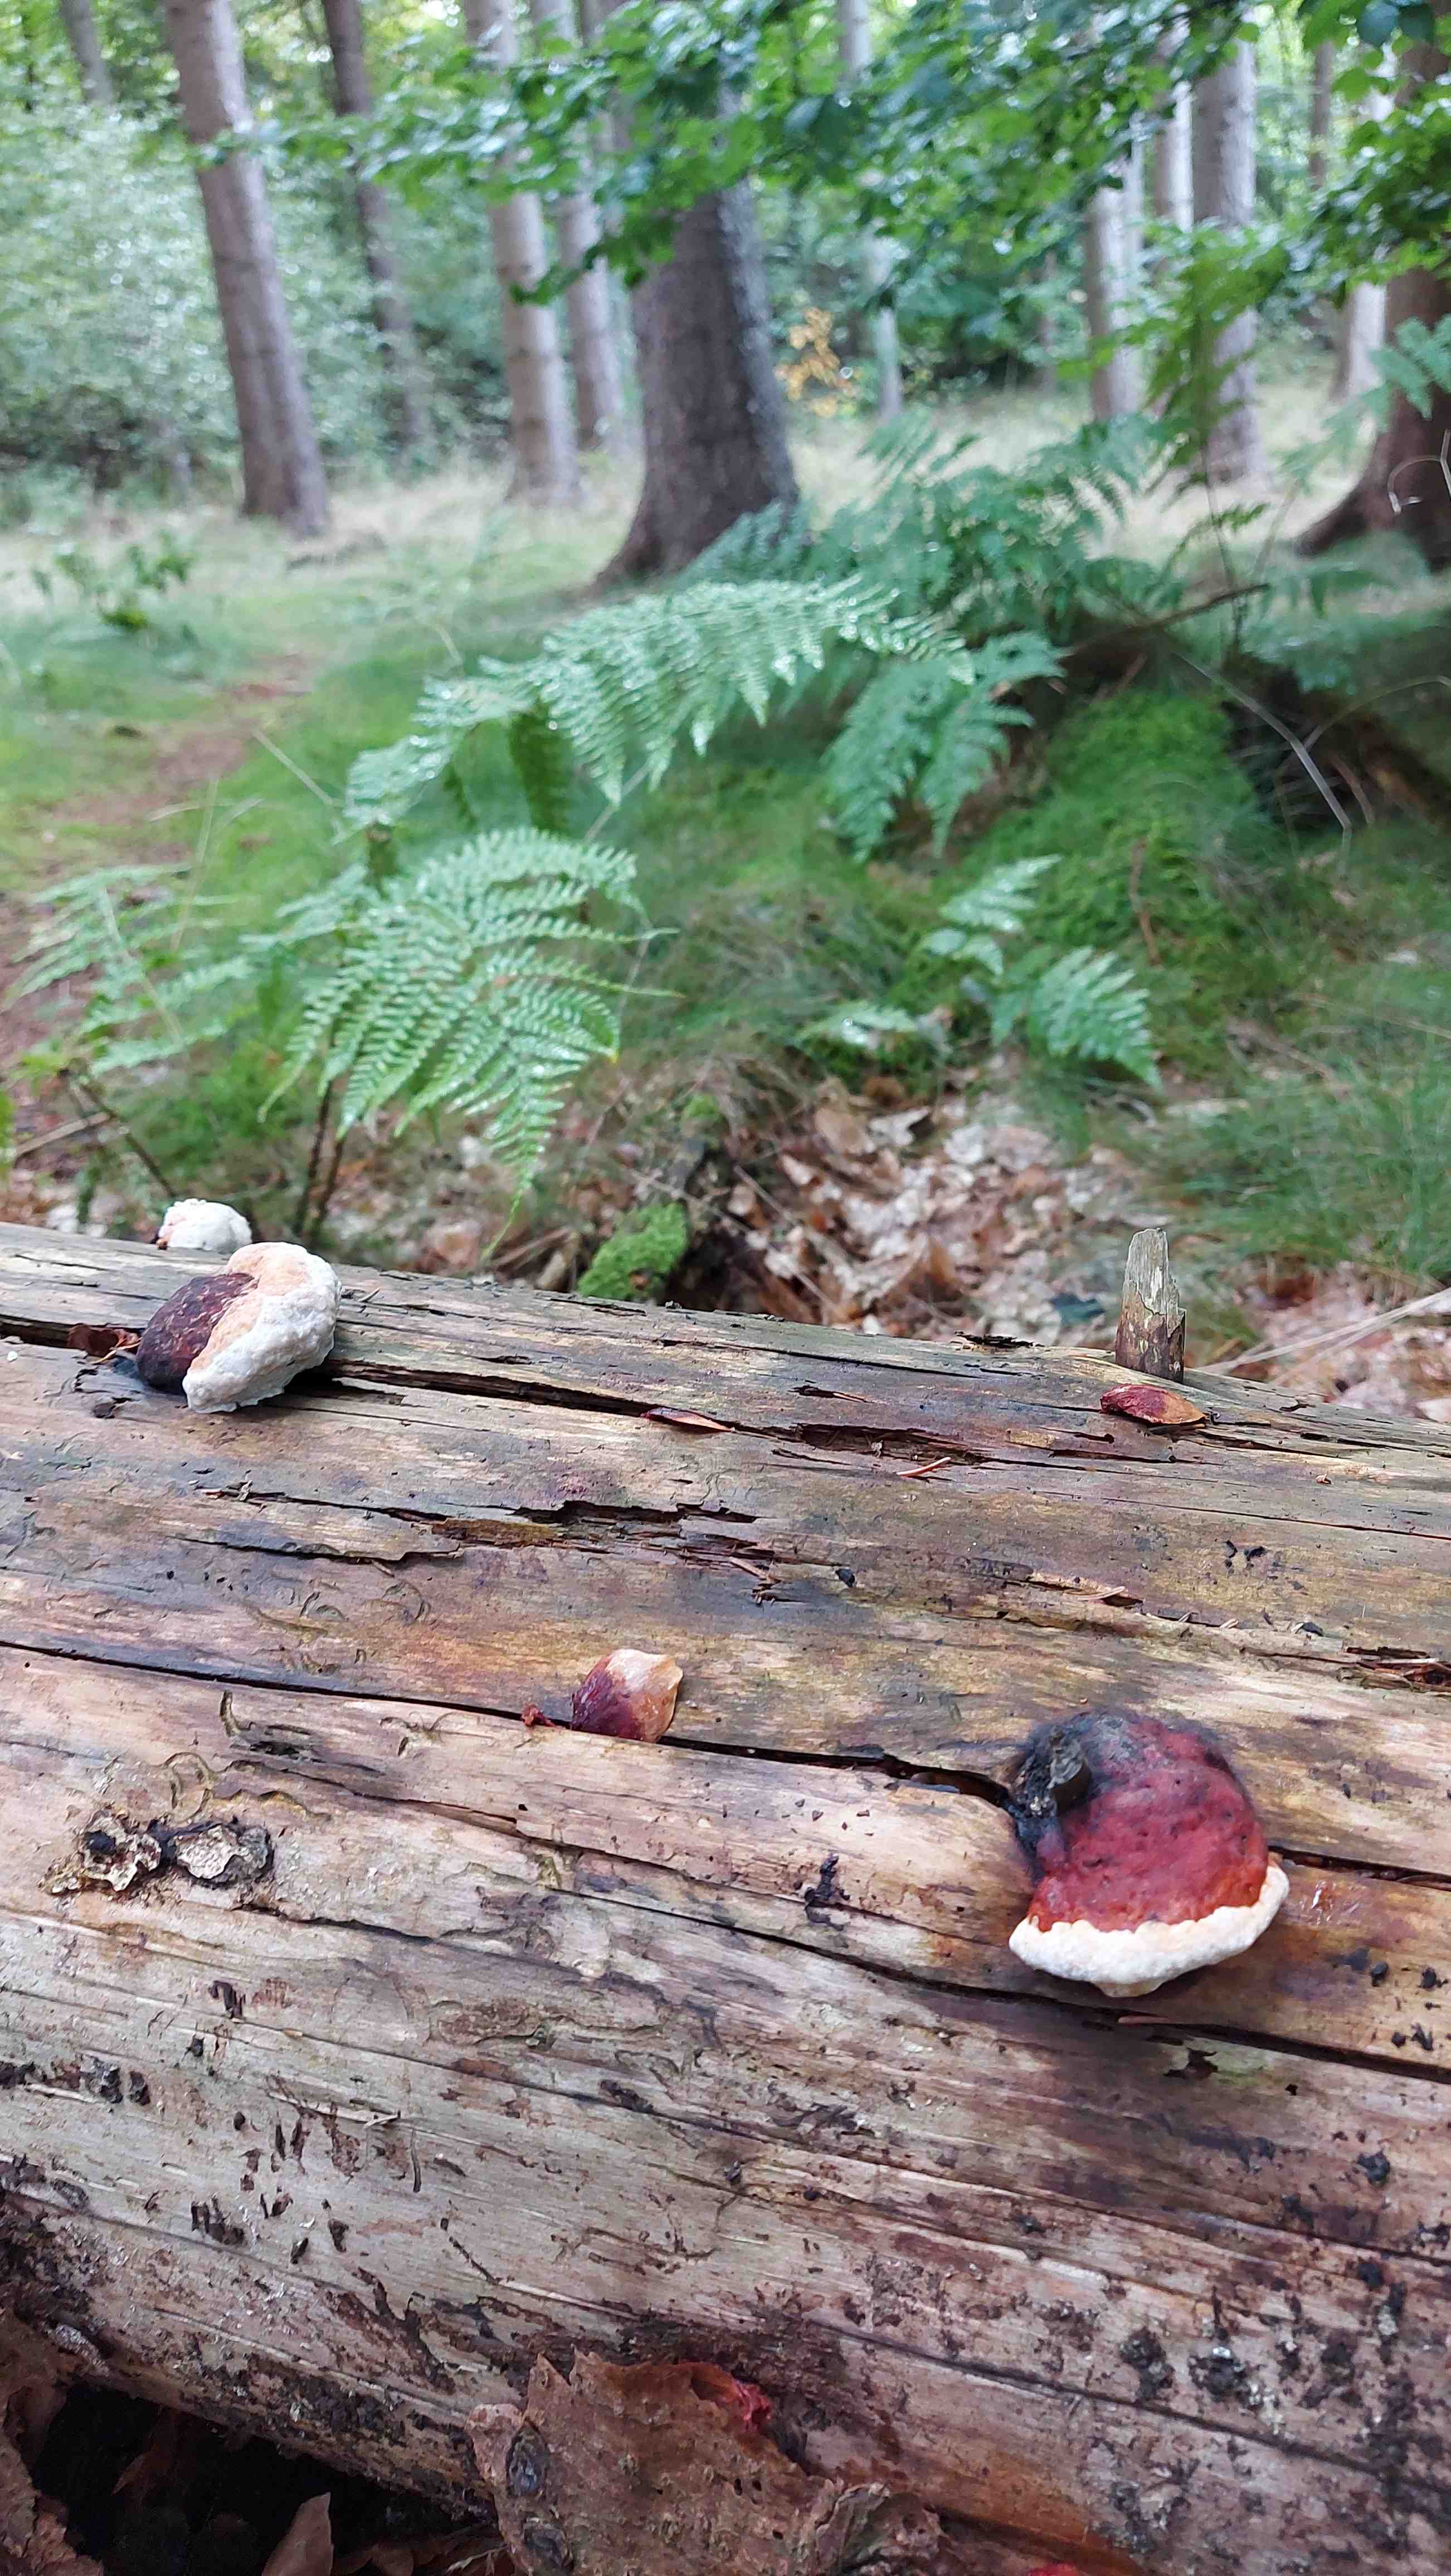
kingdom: Fungi
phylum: Basidiomycota
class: Agaricomycetes
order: Polyporales
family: Fomitopsidaceae
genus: Fomitopsis
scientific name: Fomitopsis pinicola
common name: randbæltet hovporesvamp
